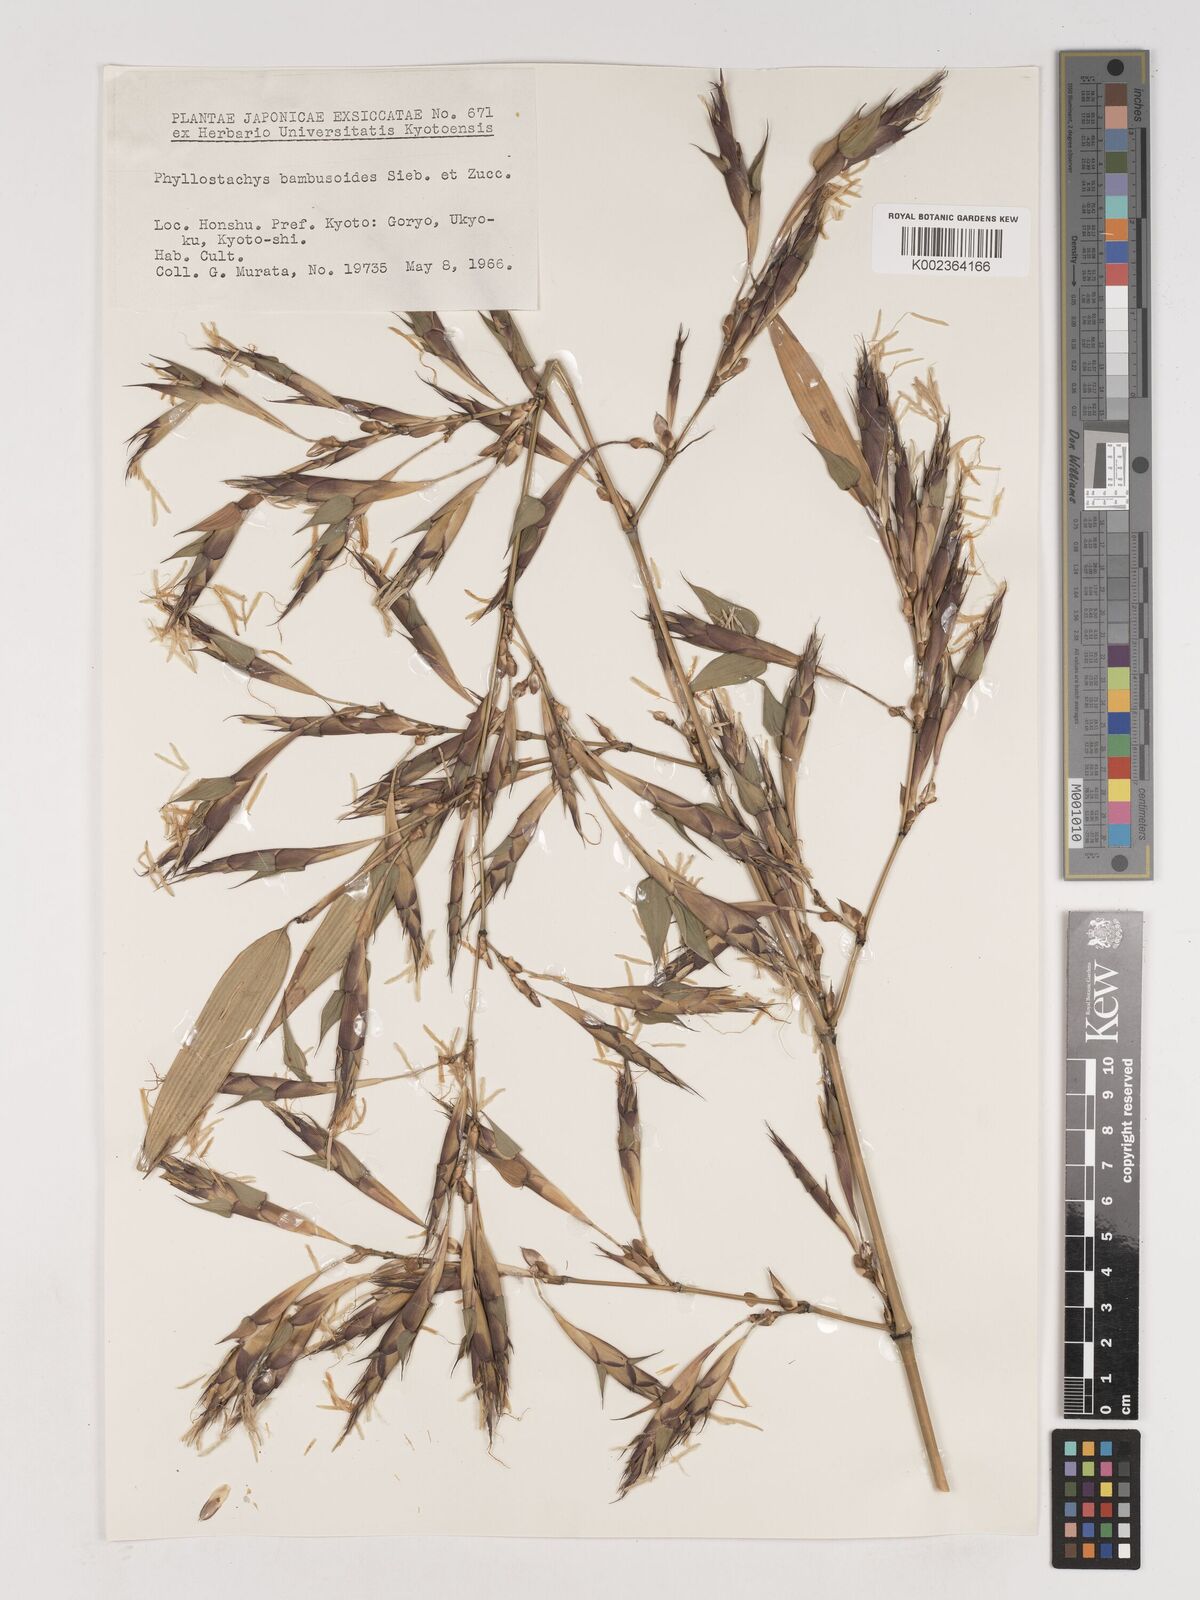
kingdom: Plantae
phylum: Tracheophyta
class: Liliopsida
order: Poales
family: Poaceae
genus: Phyllostachys
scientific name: Phyllostachys reticulata
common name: Bamboo
